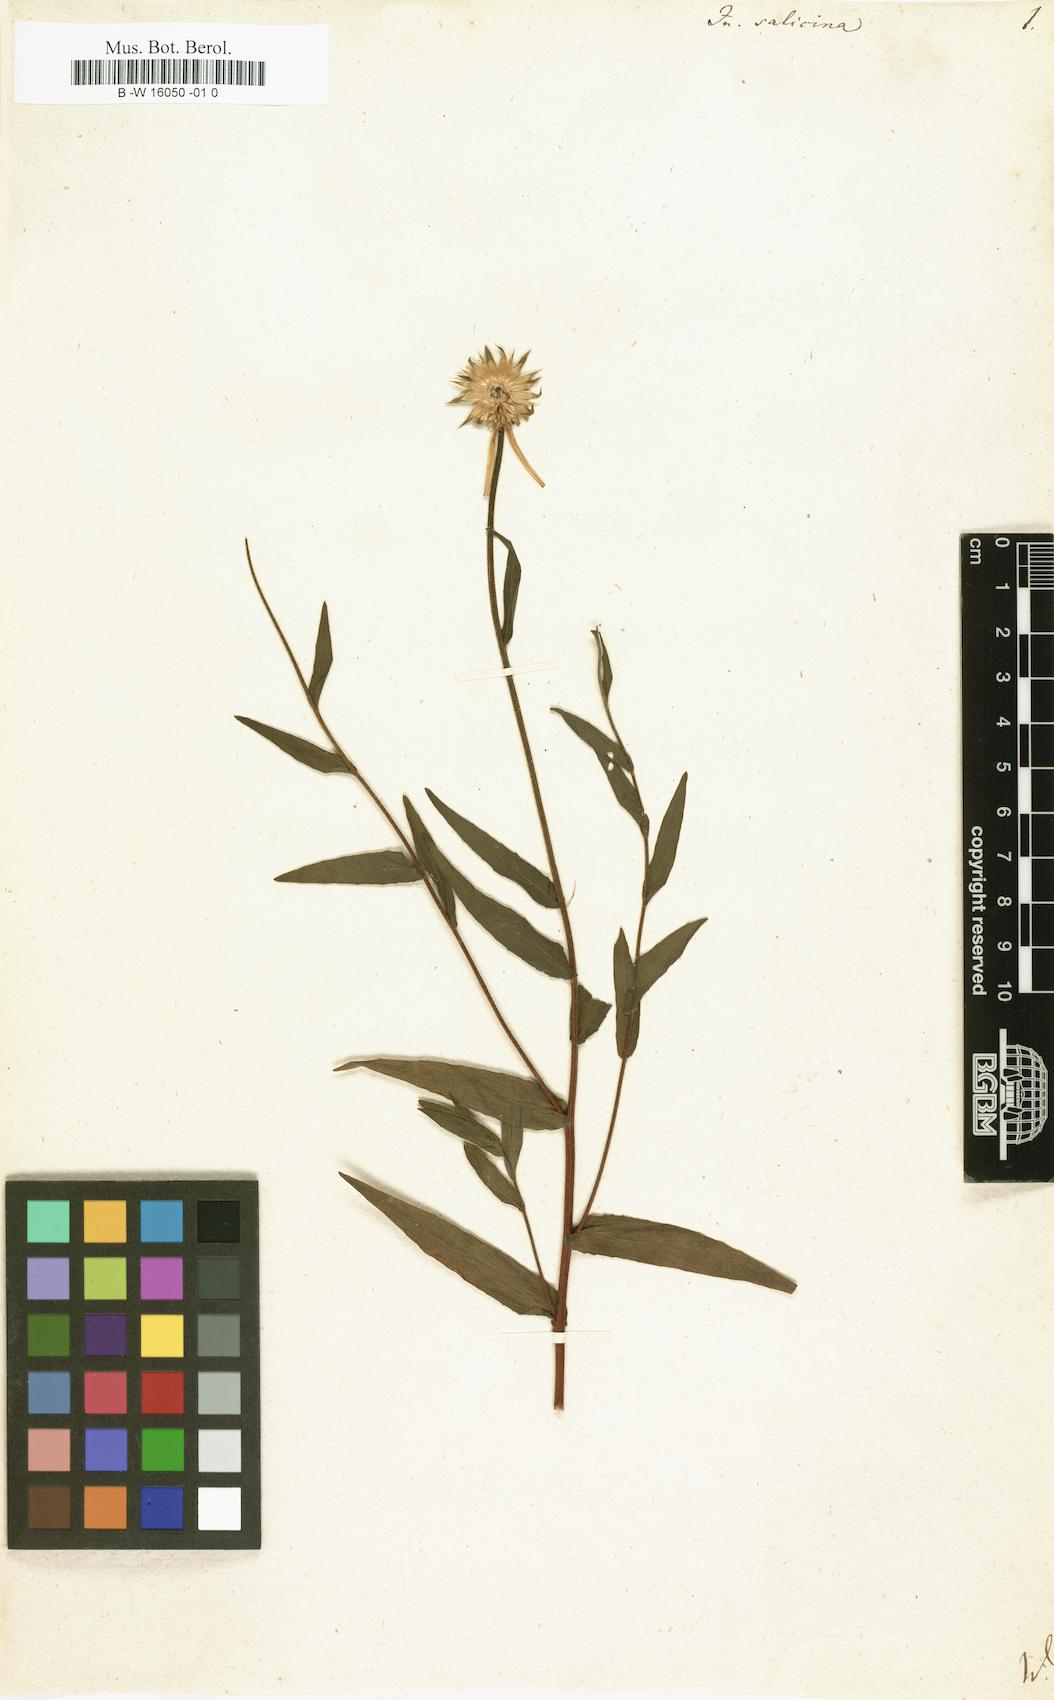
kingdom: Plantae
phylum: Tracheophyta
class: Magnoliopsida
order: Asterales
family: Asteraceae
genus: Pentanema
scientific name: Pentanema salicinum
